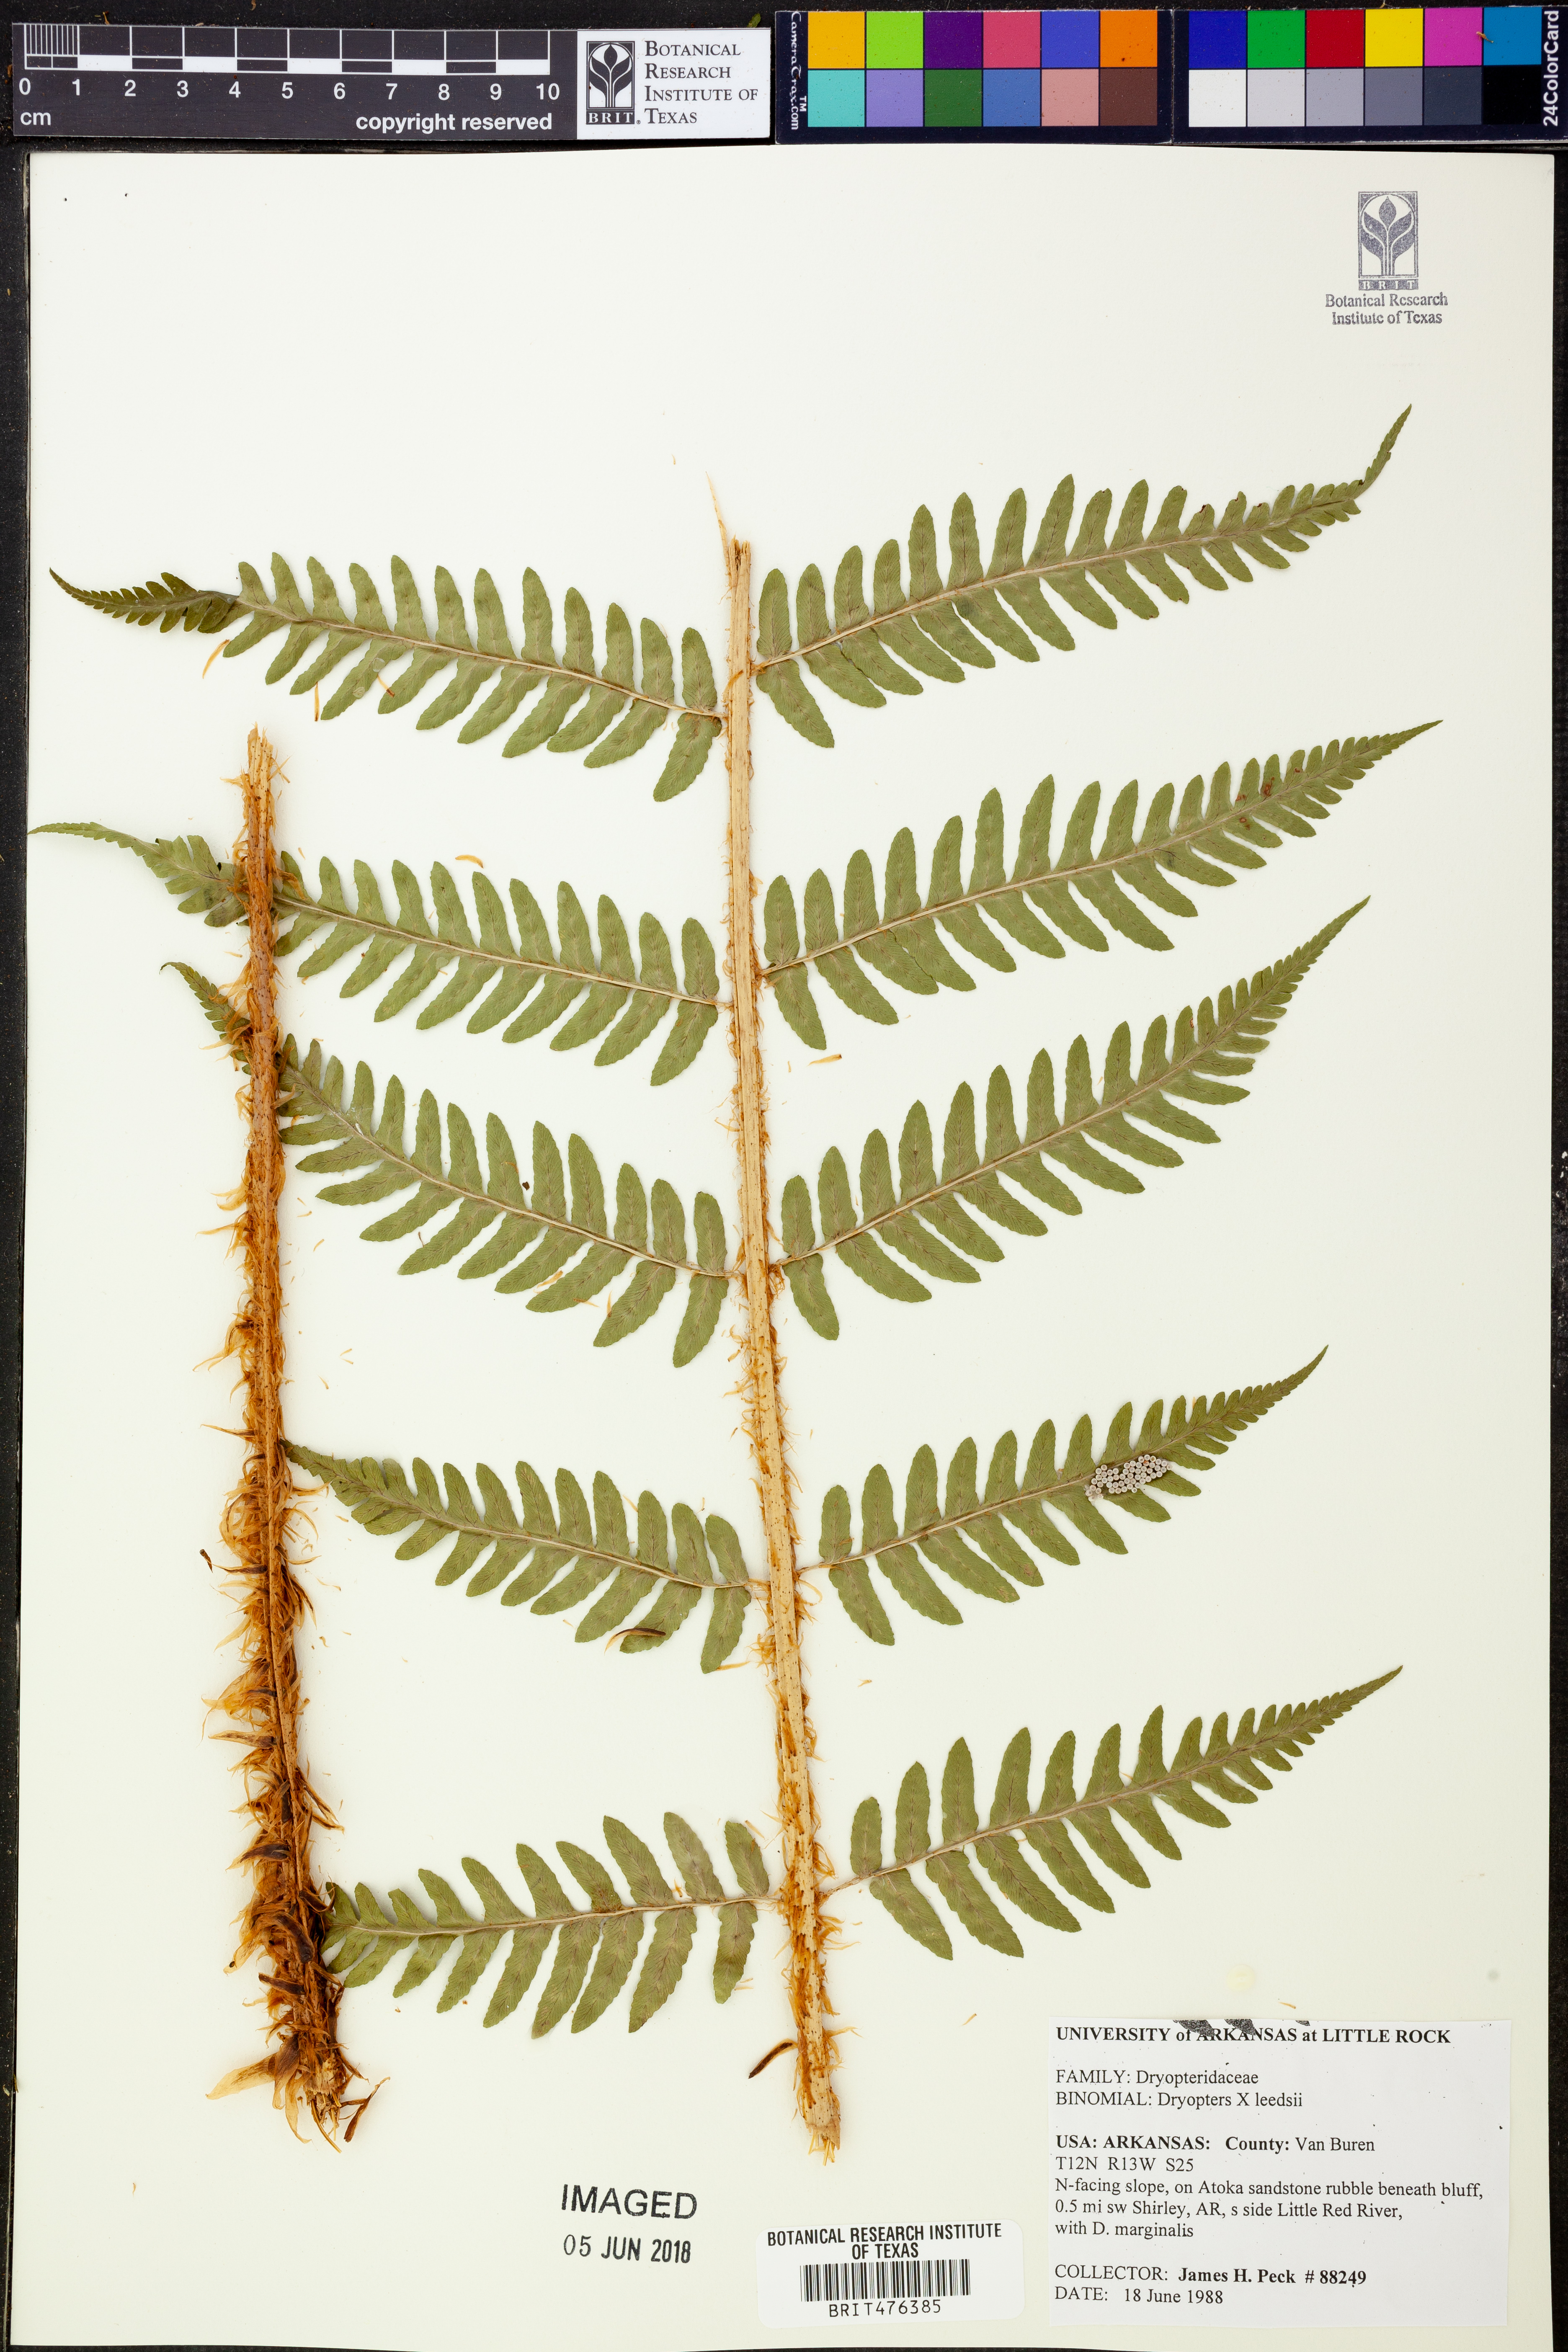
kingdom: Plantae
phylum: Tracheophyta
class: Polypodiopsida
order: Polypodiales
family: Dryopteridaceae
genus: Dryopteris
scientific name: Dryopteris
